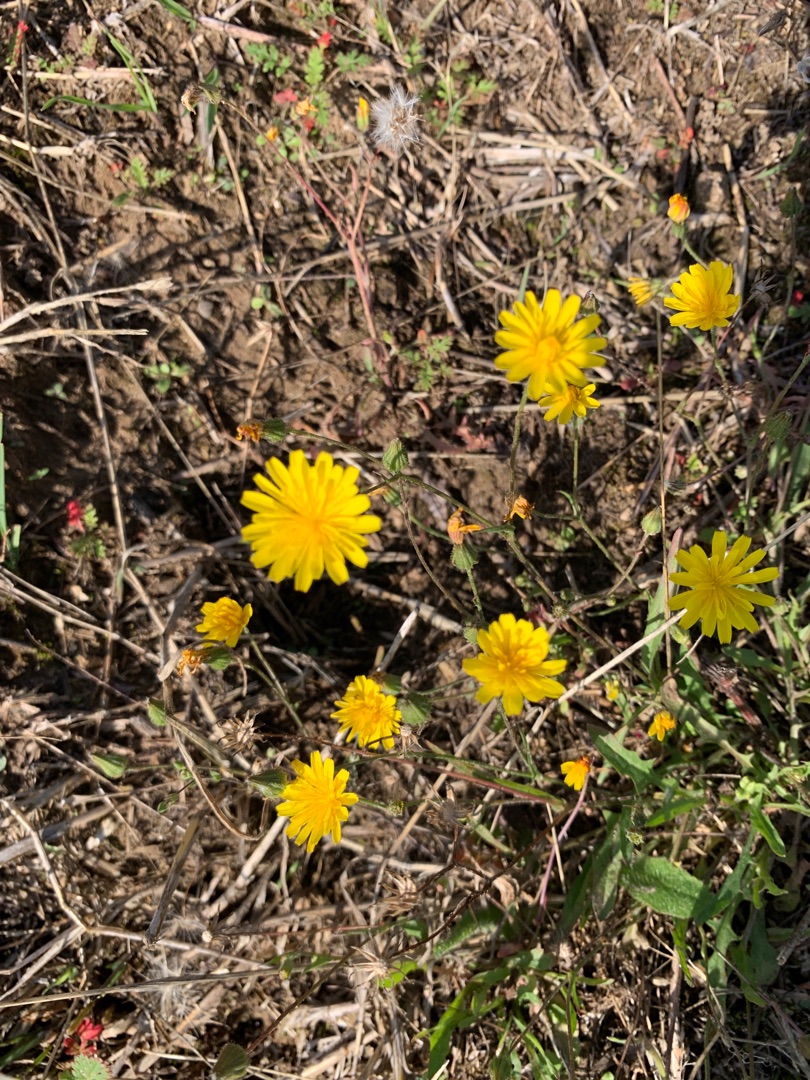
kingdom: Plantae
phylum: Tracheophyta
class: Magnoliopsida
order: Asterales
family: Asteraceae
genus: Crepis
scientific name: Crepis capillaris
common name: Grøn høgeskæg
